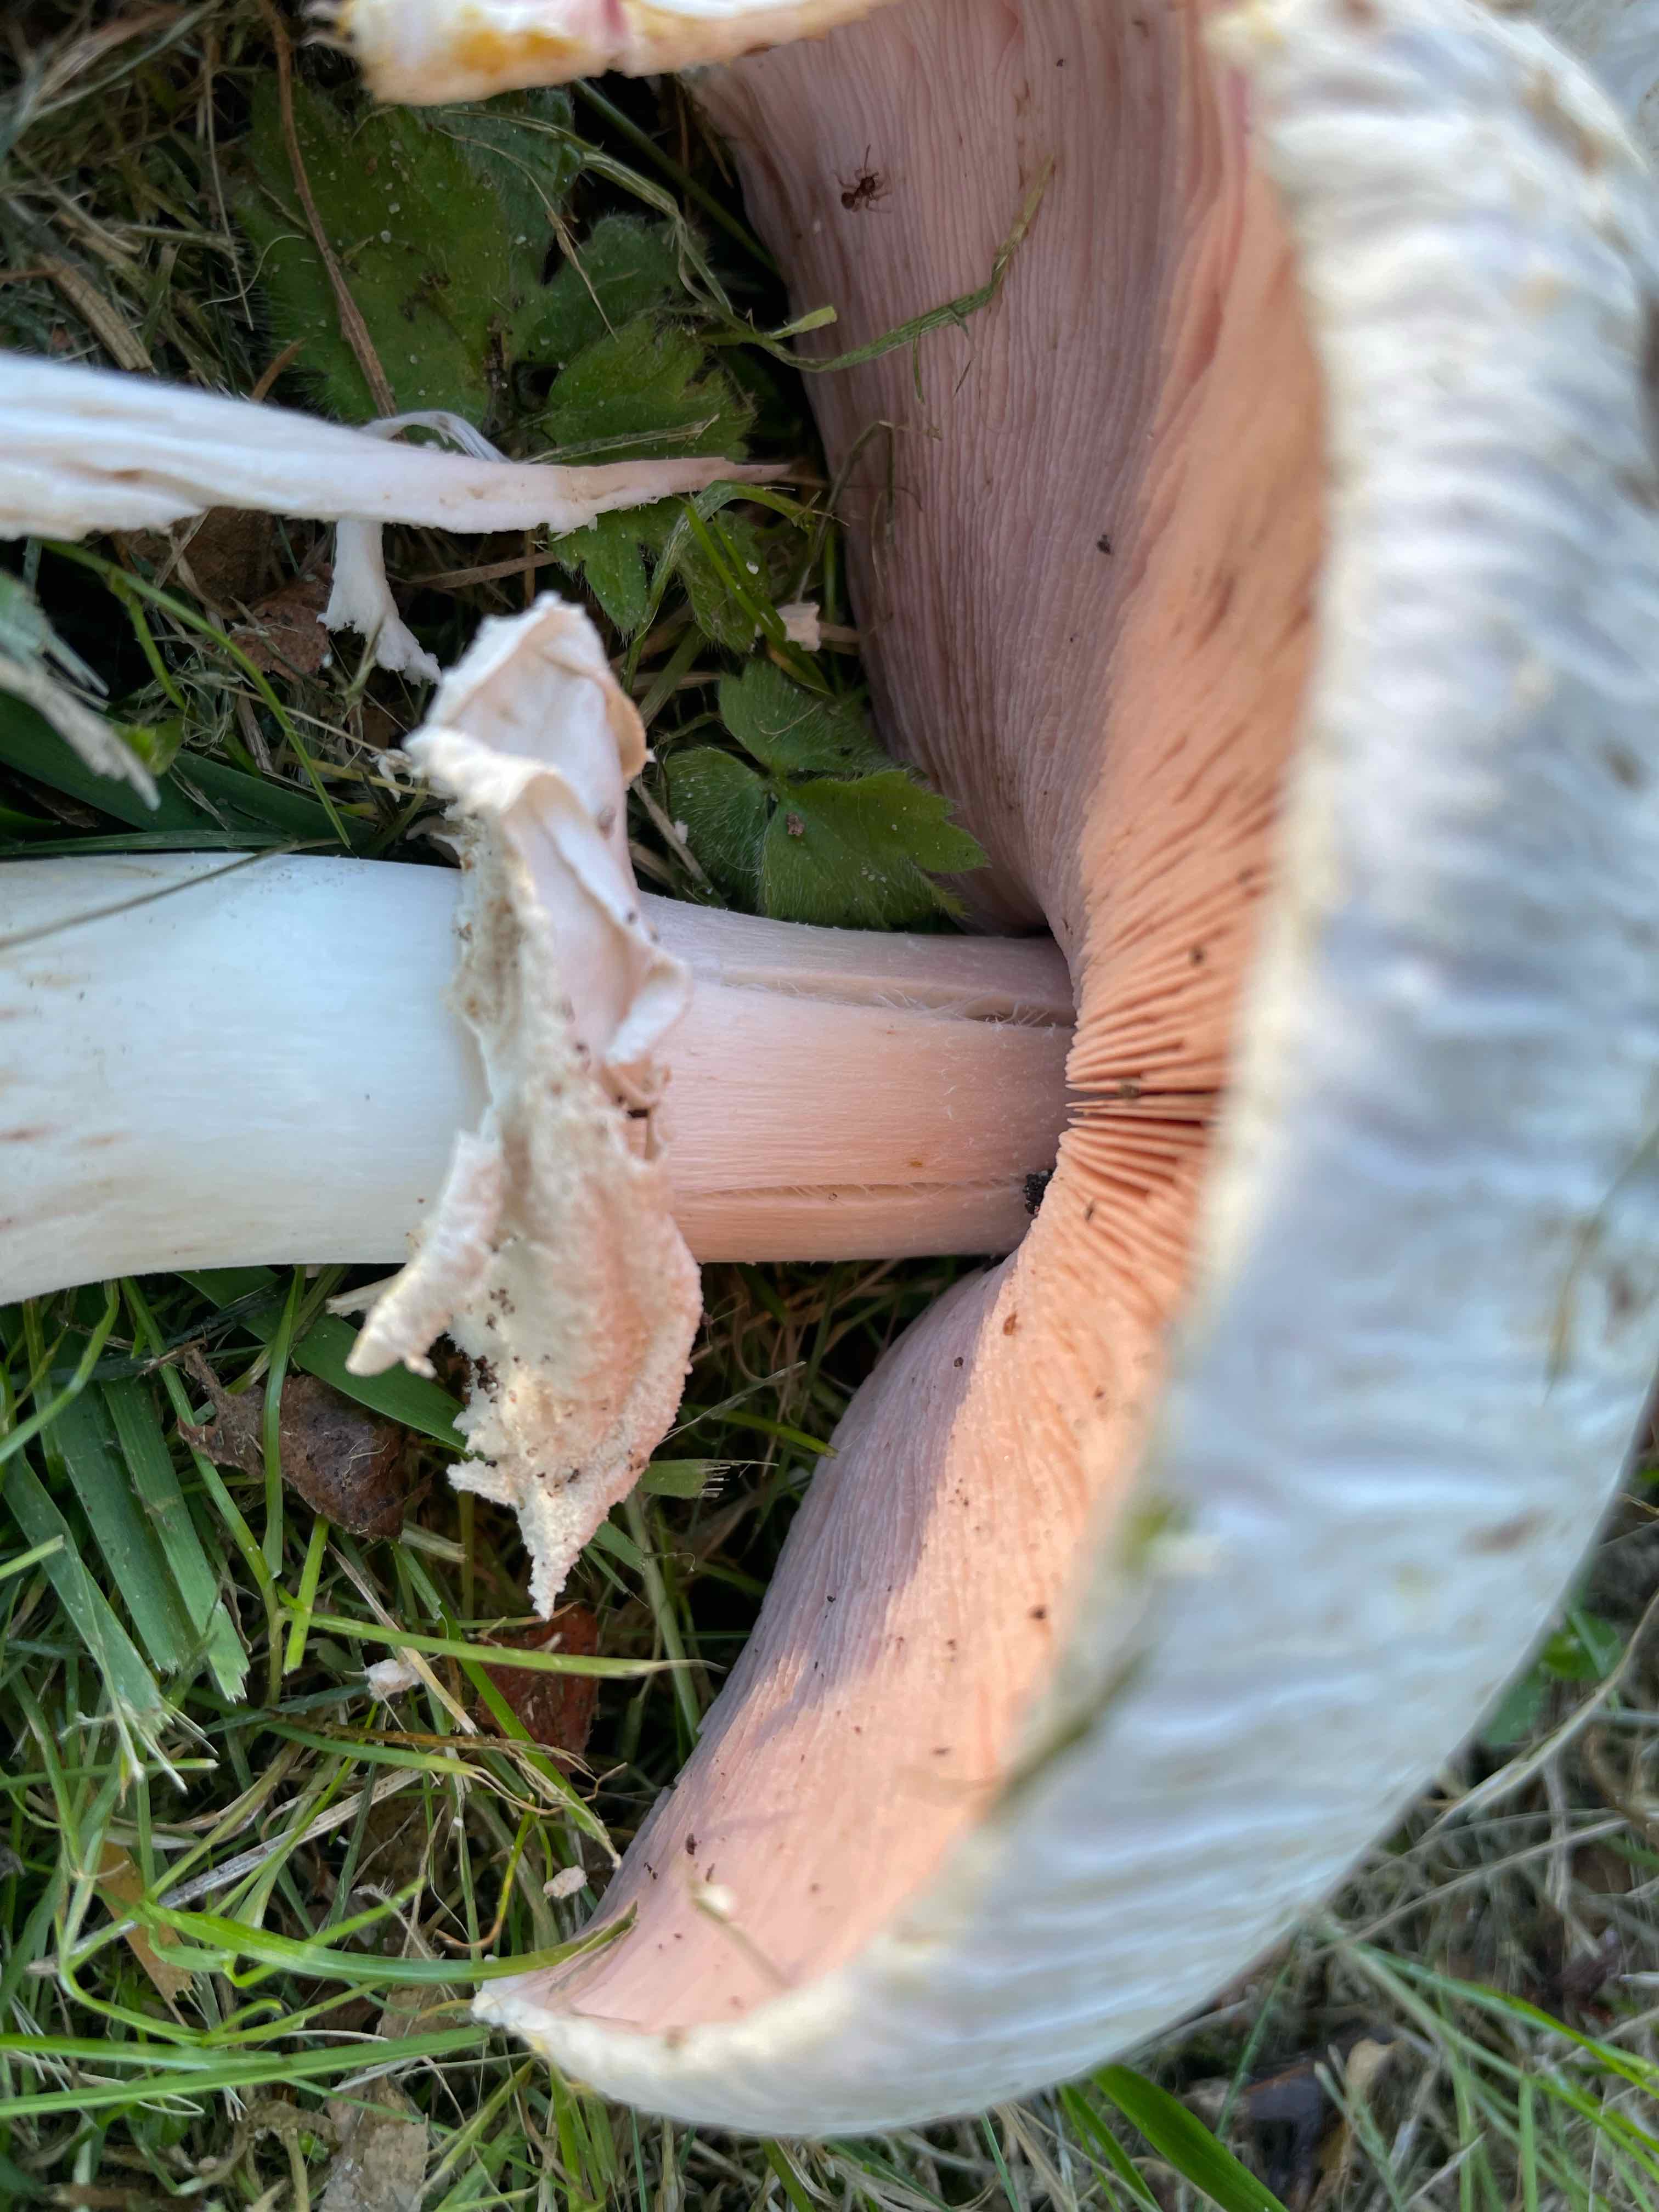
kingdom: Fungi
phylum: Basidiomycota
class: Agaricomycetes
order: Agaricales
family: Agaricaceae
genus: Agaricus
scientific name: Agaricus xanthodermus
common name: karbol-champignon
